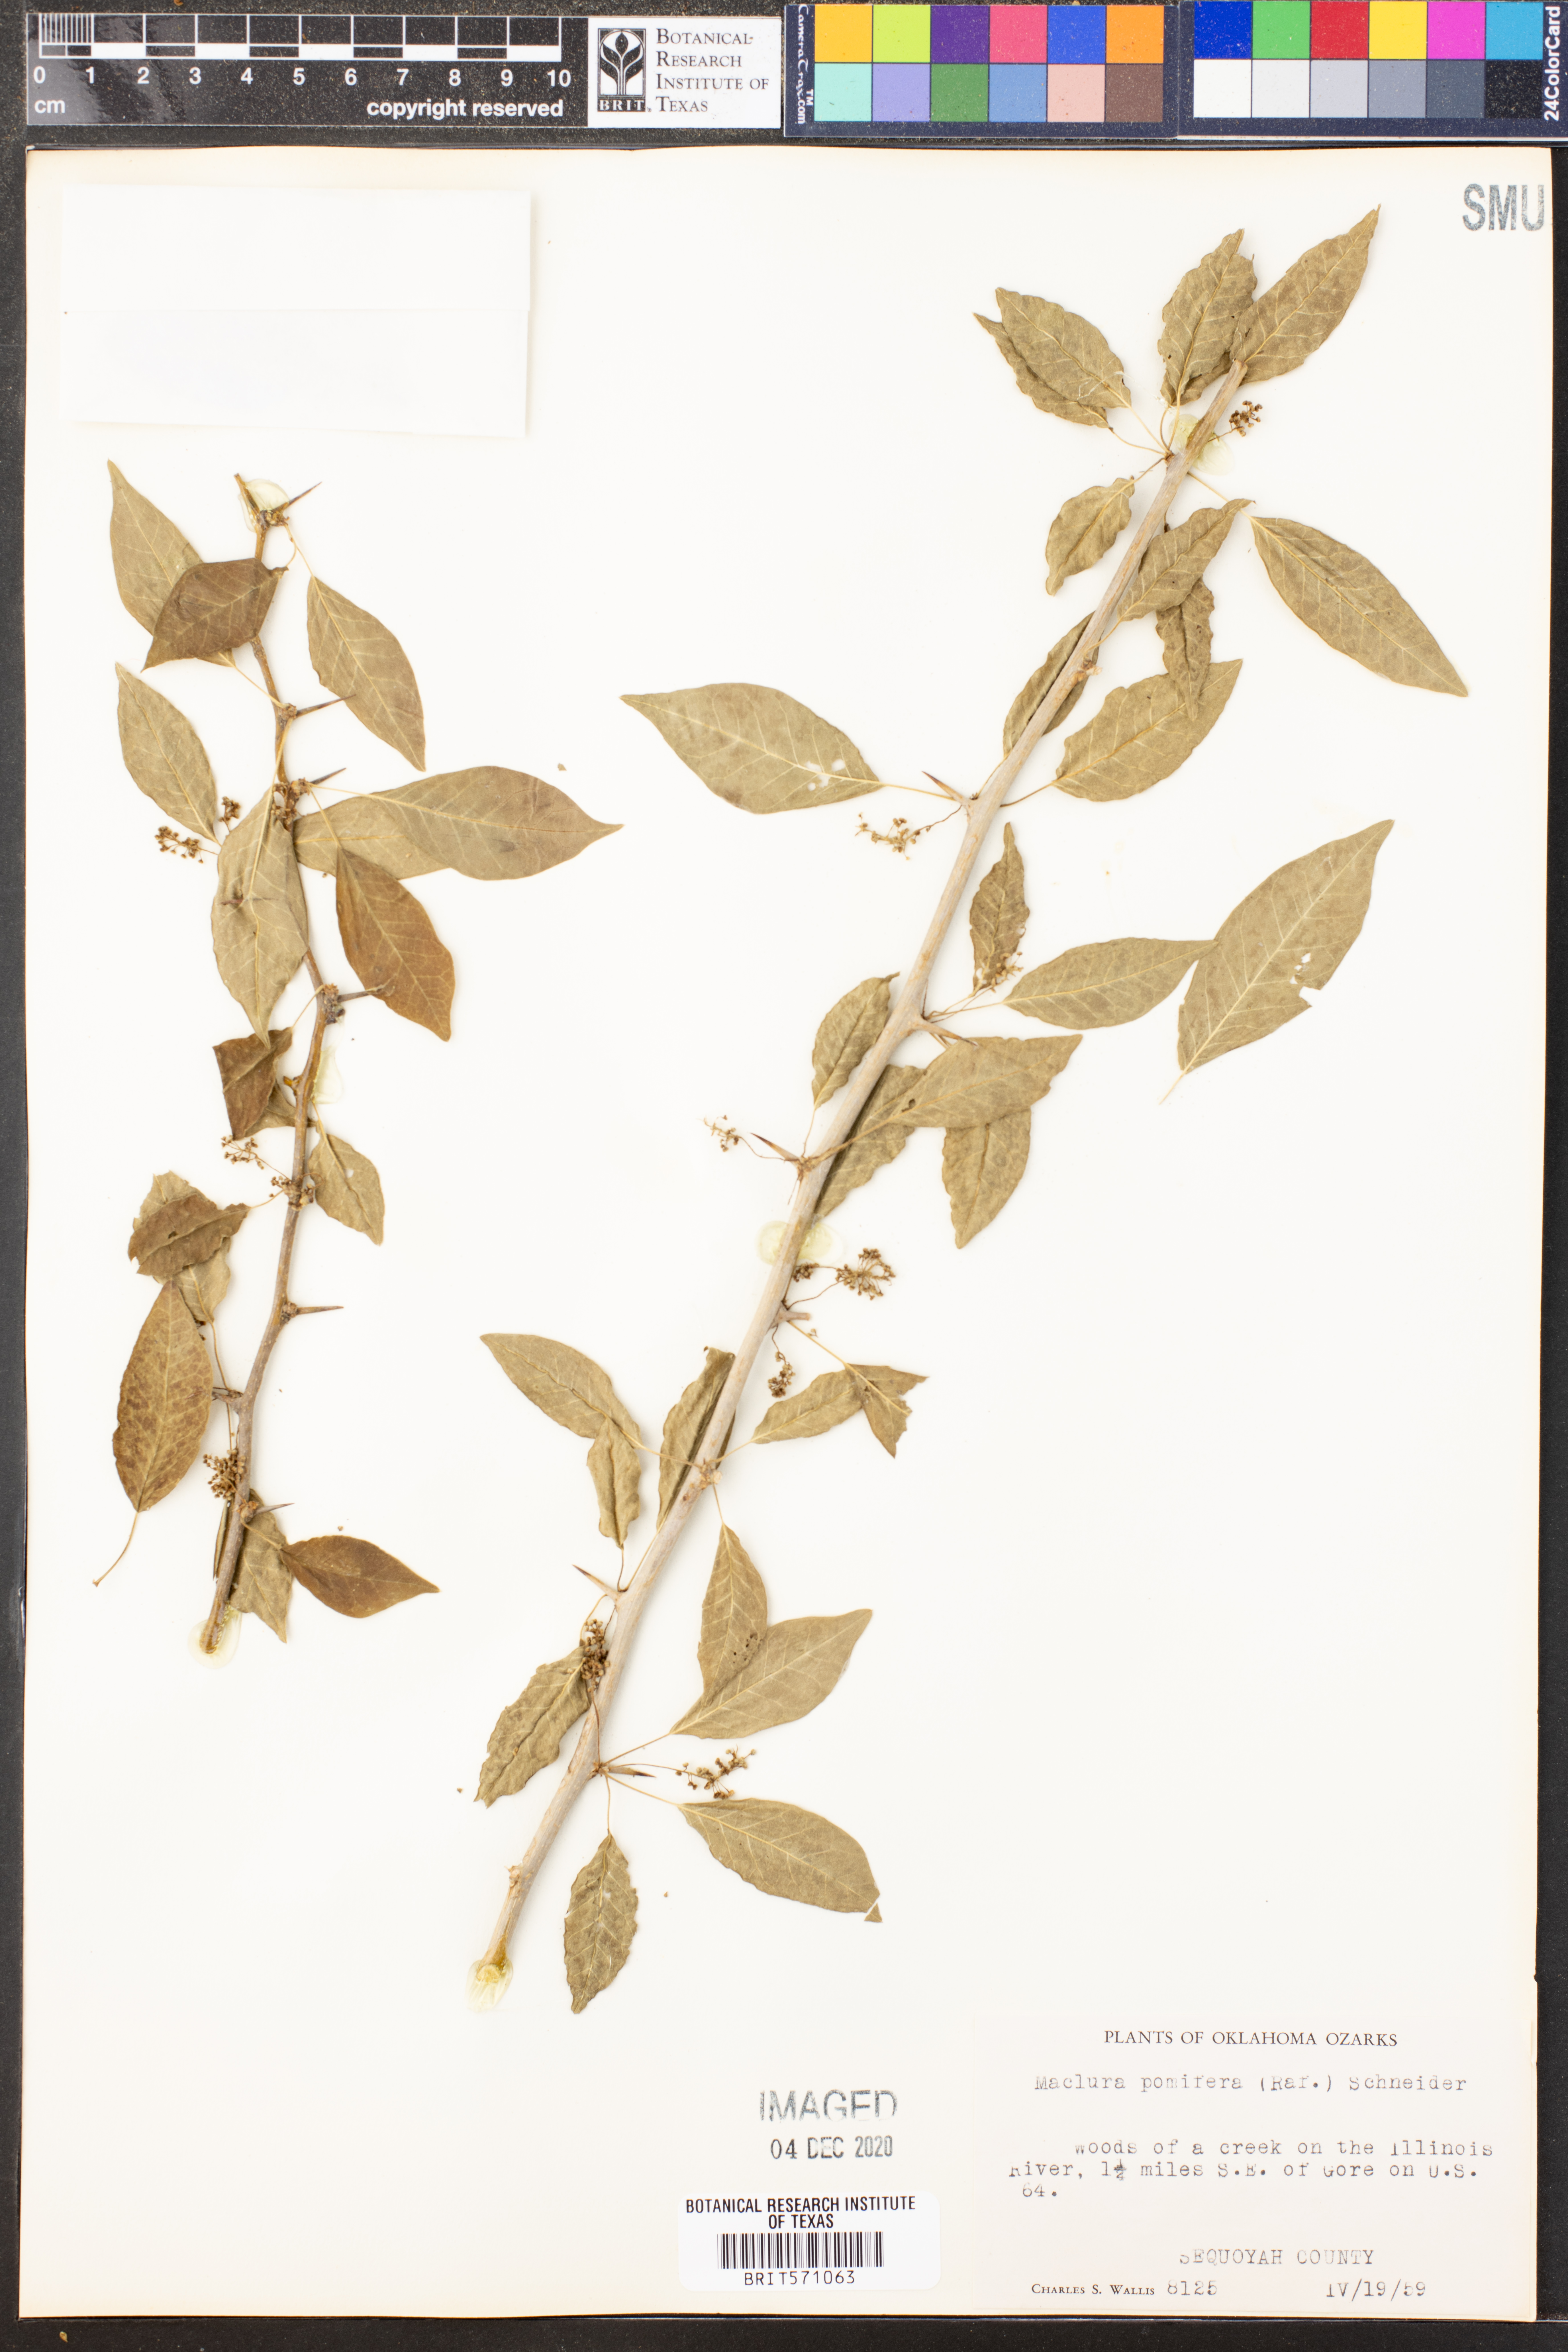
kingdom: Plantae
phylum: Tracheophyta
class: Magnoliopsida
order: Rosales
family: Moraceae
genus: Maclura
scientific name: Maclura pomifera
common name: Osage-orange
